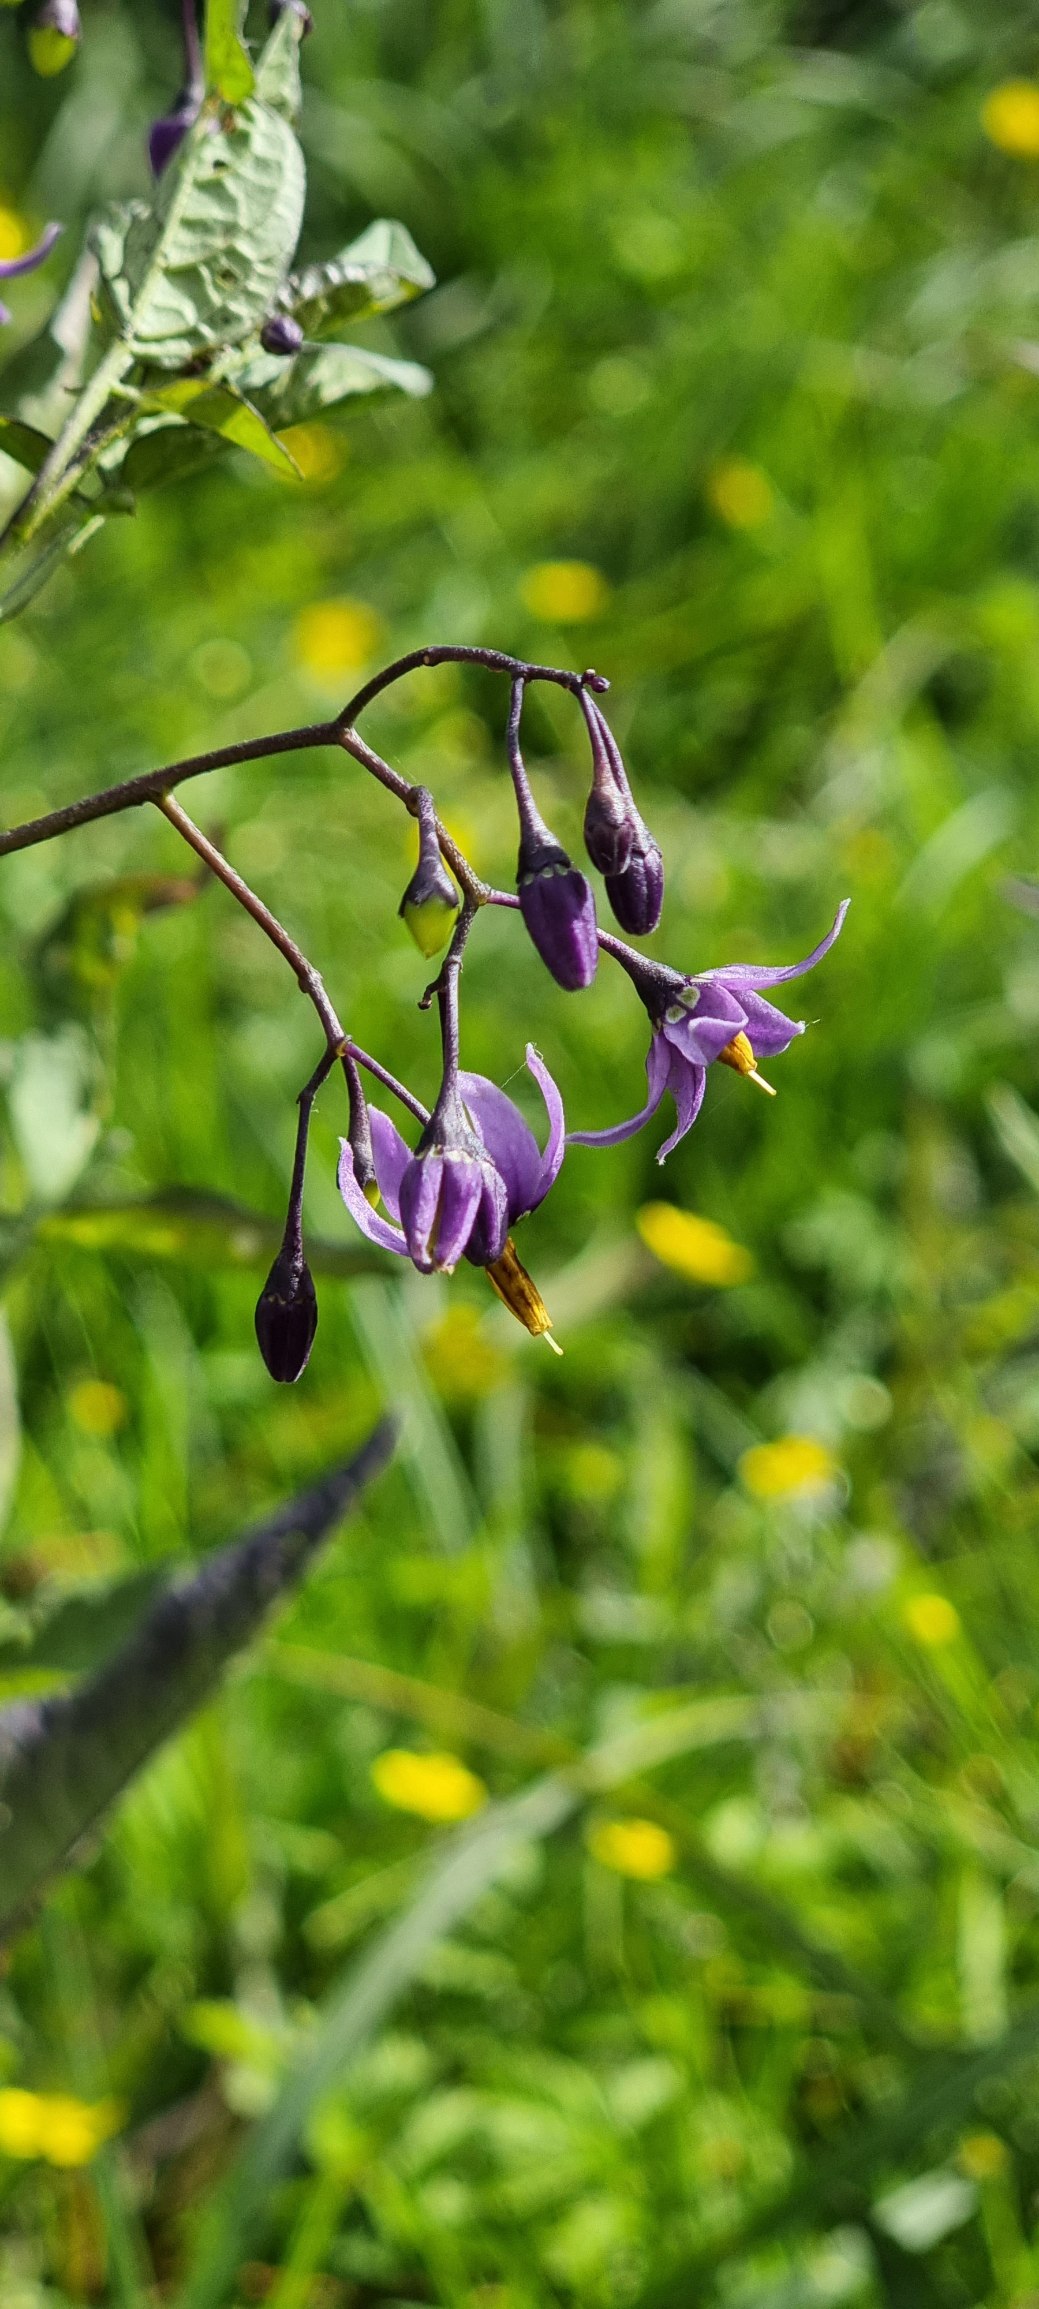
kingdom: Plantae
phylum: Tracheophyta
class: Magnoliopsida
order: Solanales
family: Solanaceae
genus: Solanum
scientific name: Solanum dulcamara
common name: Bittersød natskygge
